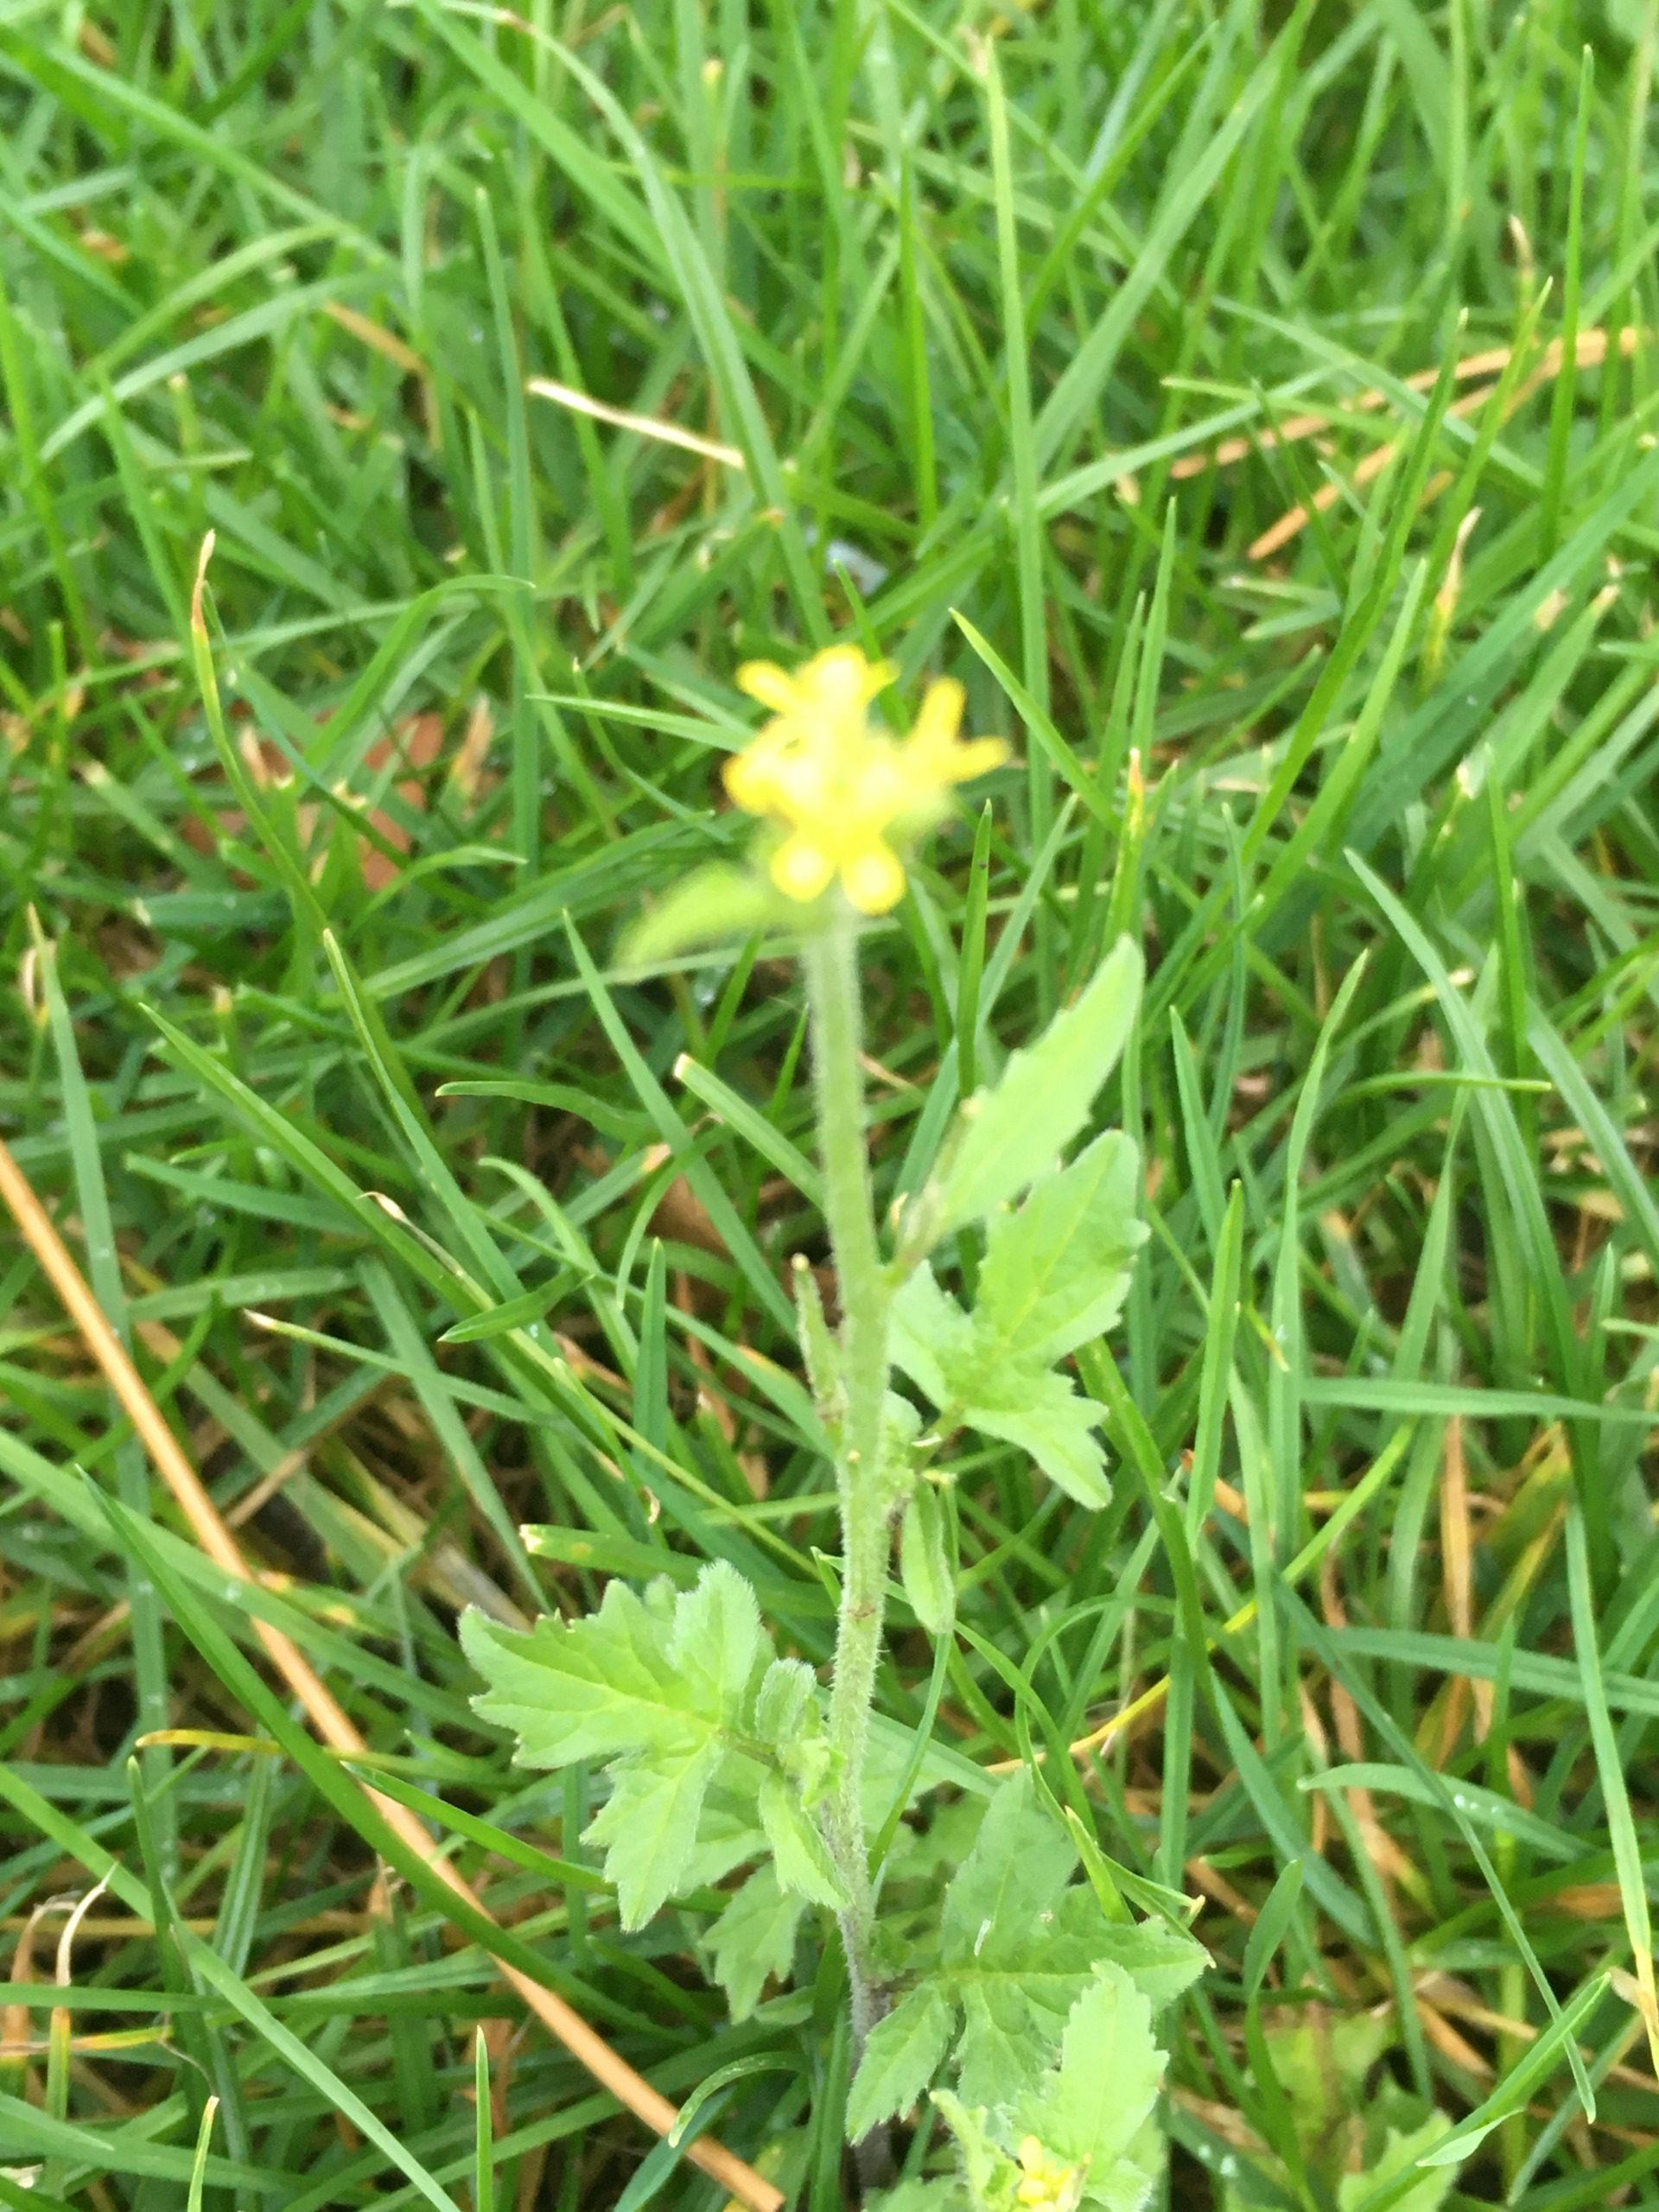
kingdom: Plantae
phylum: Tracheophyta
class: Magnoliopsida
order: Brassicales
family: Brassicaceae
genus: Sisymbrium
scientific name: Sisymbrium officinale
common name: Rank vejsennep
